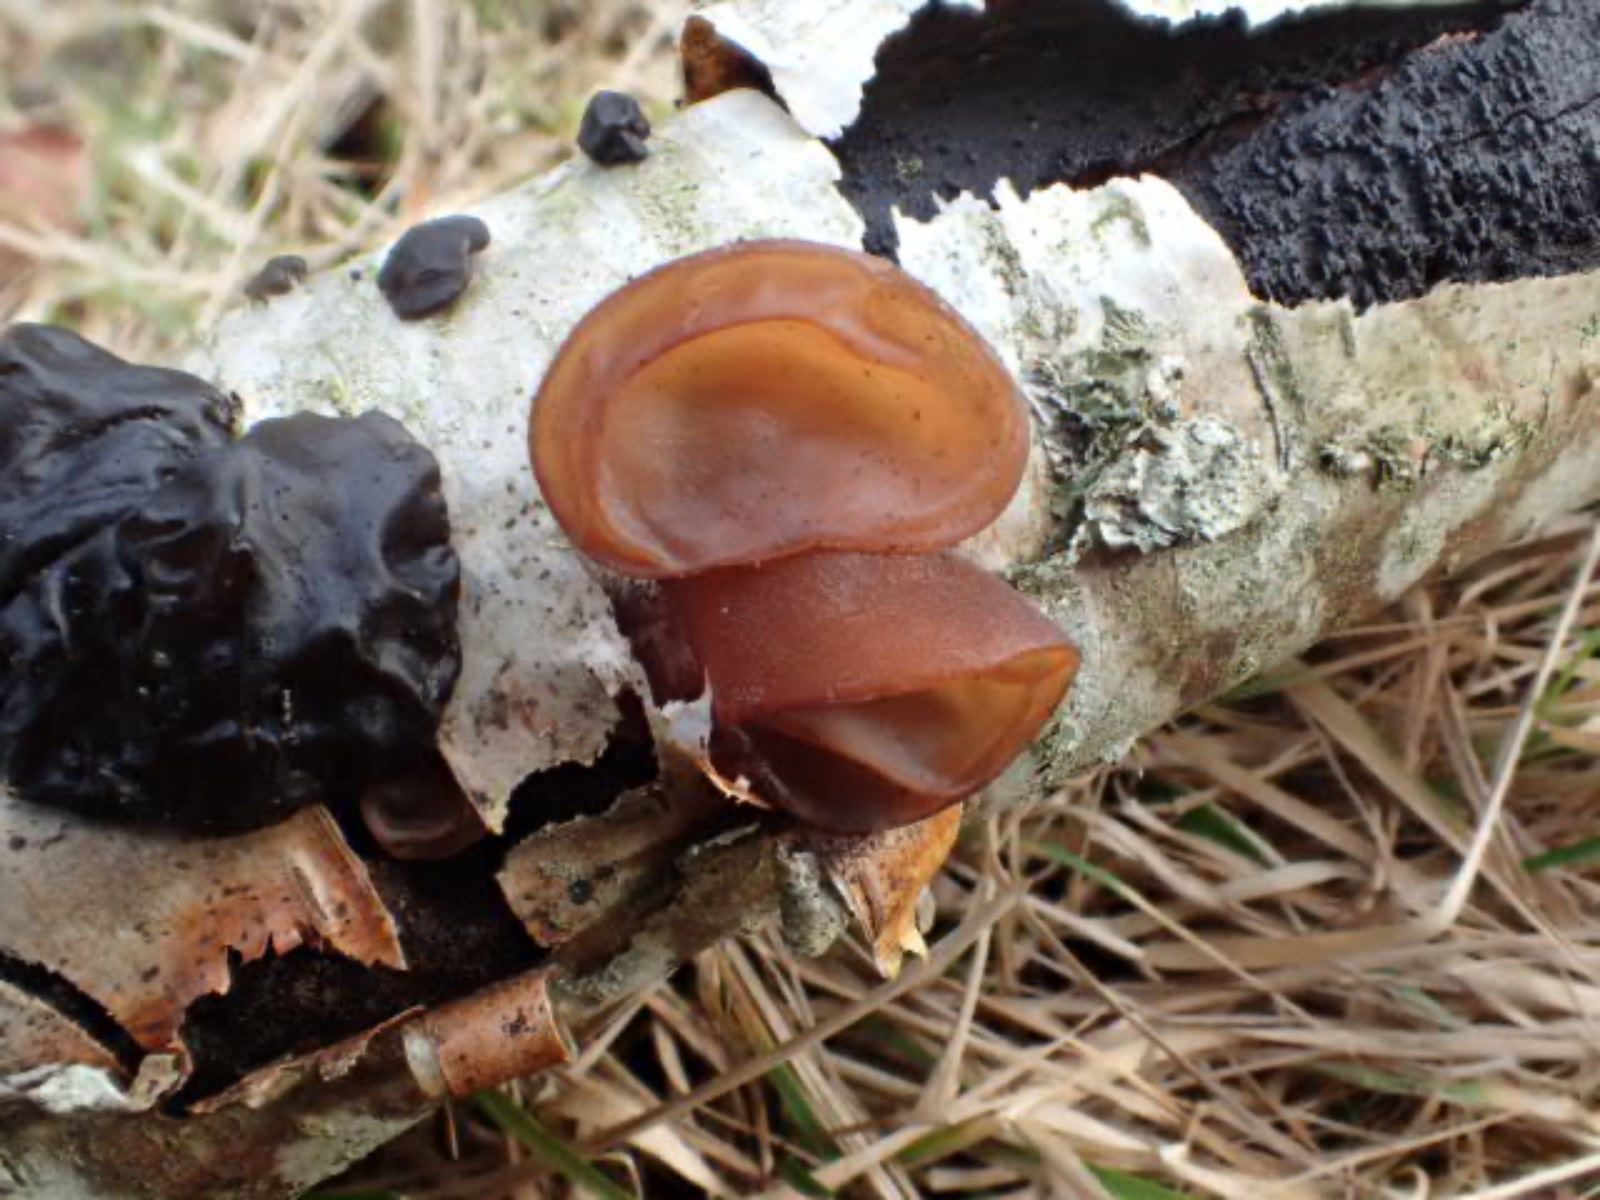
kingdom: Fungi
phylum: Basidiomycota
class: Agaricomycetes
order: Auriculariales
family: Auriculariaceae
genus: Auricularia
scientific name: Auricularia auricula-judae
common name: almindelig judasøre
